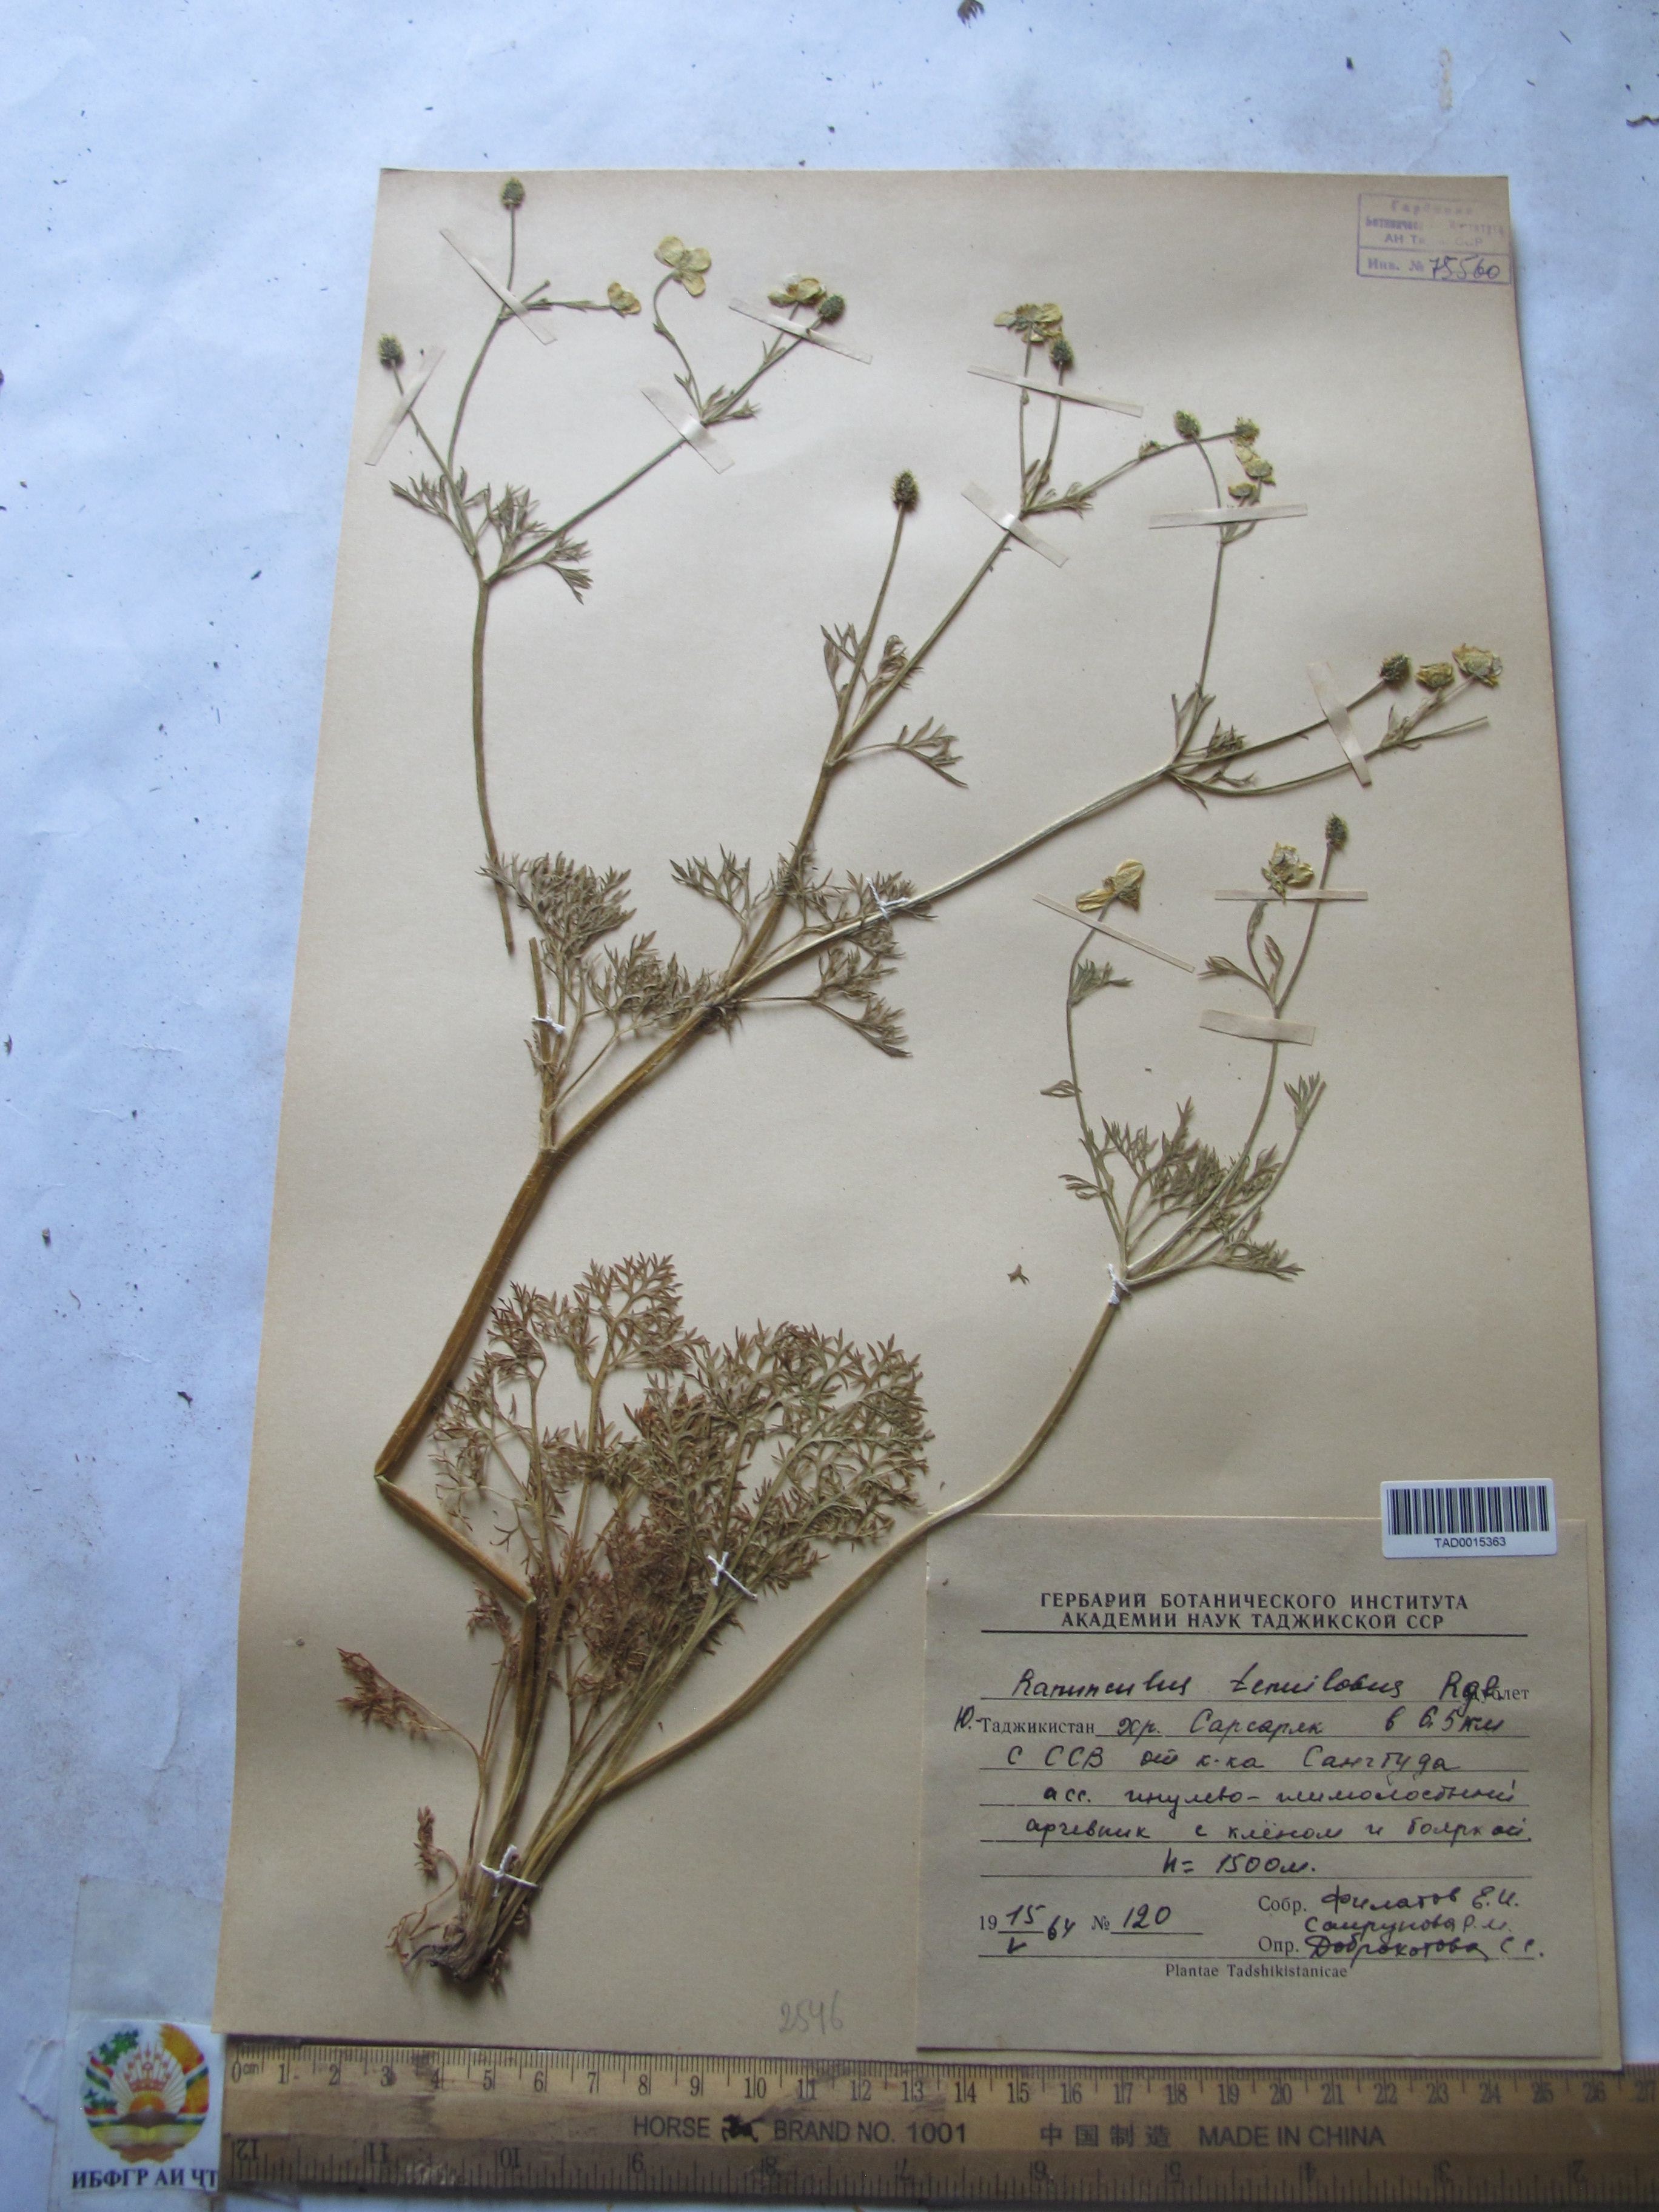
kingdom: Plantae
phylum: Tracheophyta
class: Magnoliopsida
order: Ranunculales
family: Ranunculaceae
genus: Ranunculus
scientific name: Ranunculus tenuilobus
